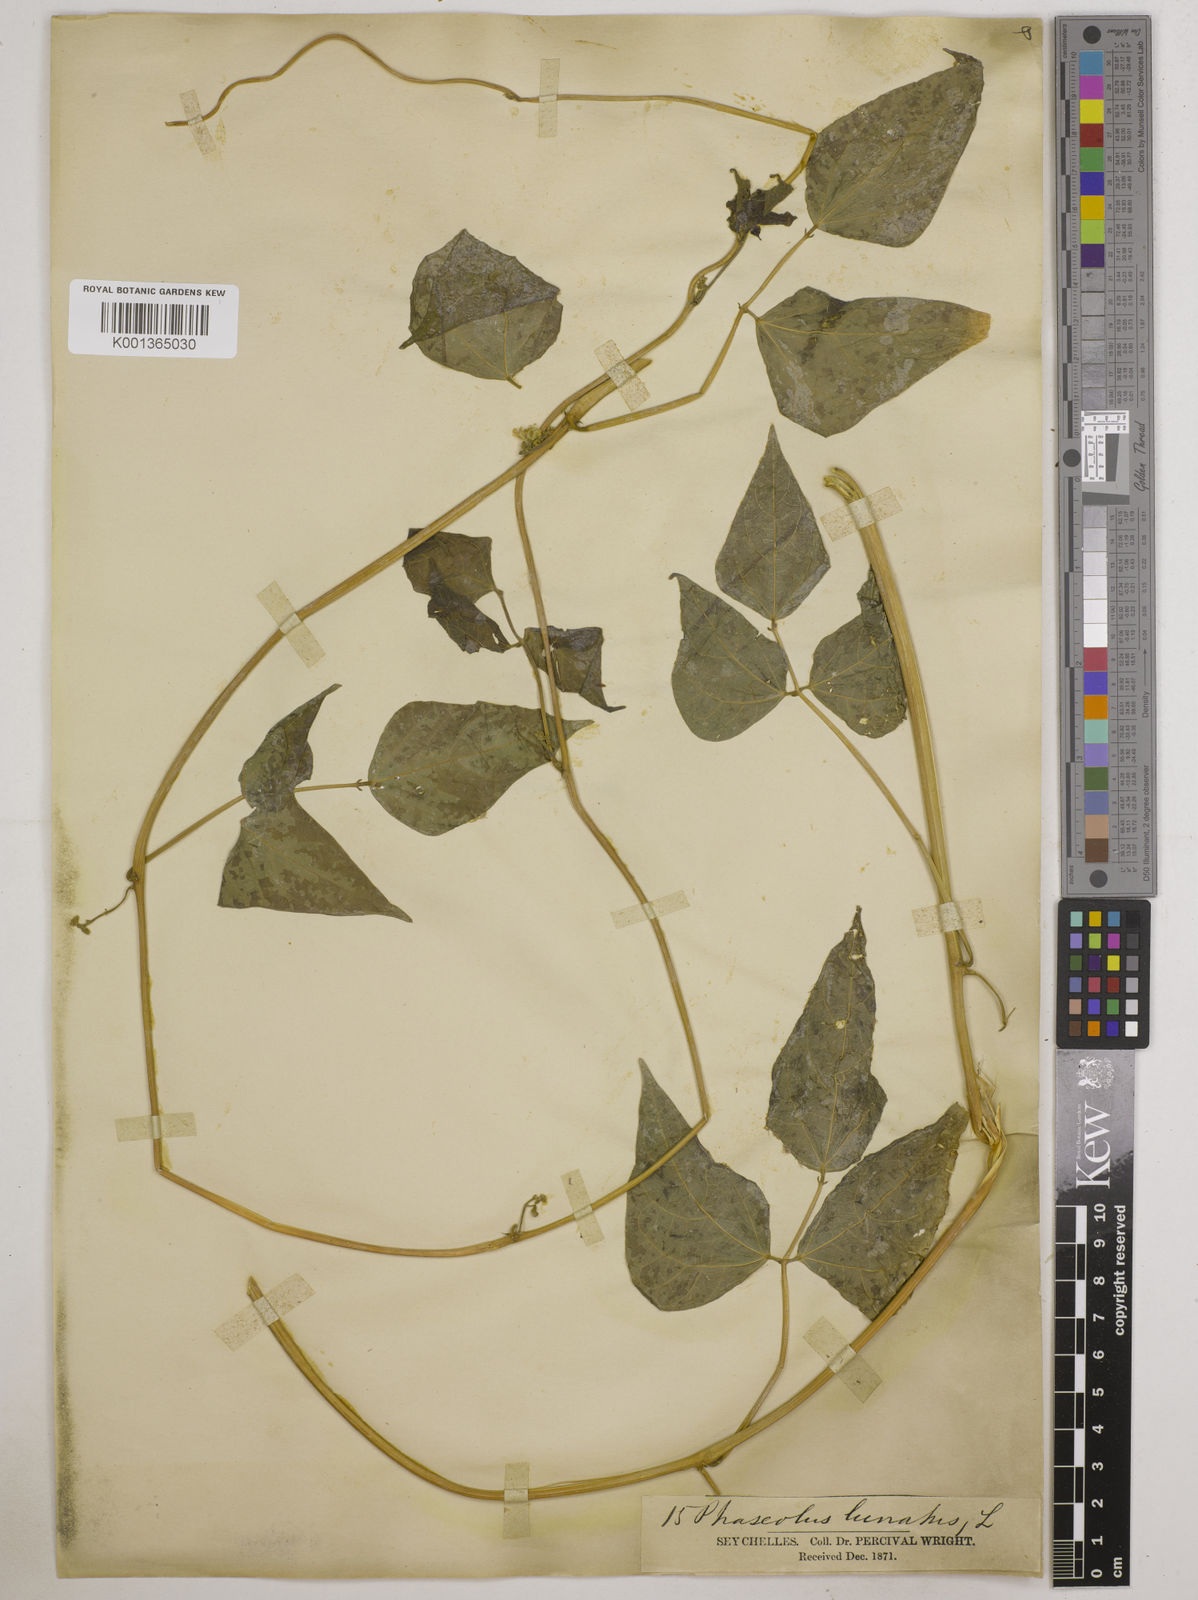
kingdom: Plantae
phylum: Tracheophyta
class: Magnoliopsida
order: Fabales
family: Fabaceae
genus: Phaseolus
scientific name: Phaseolus lunatus
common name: Sieva bean
